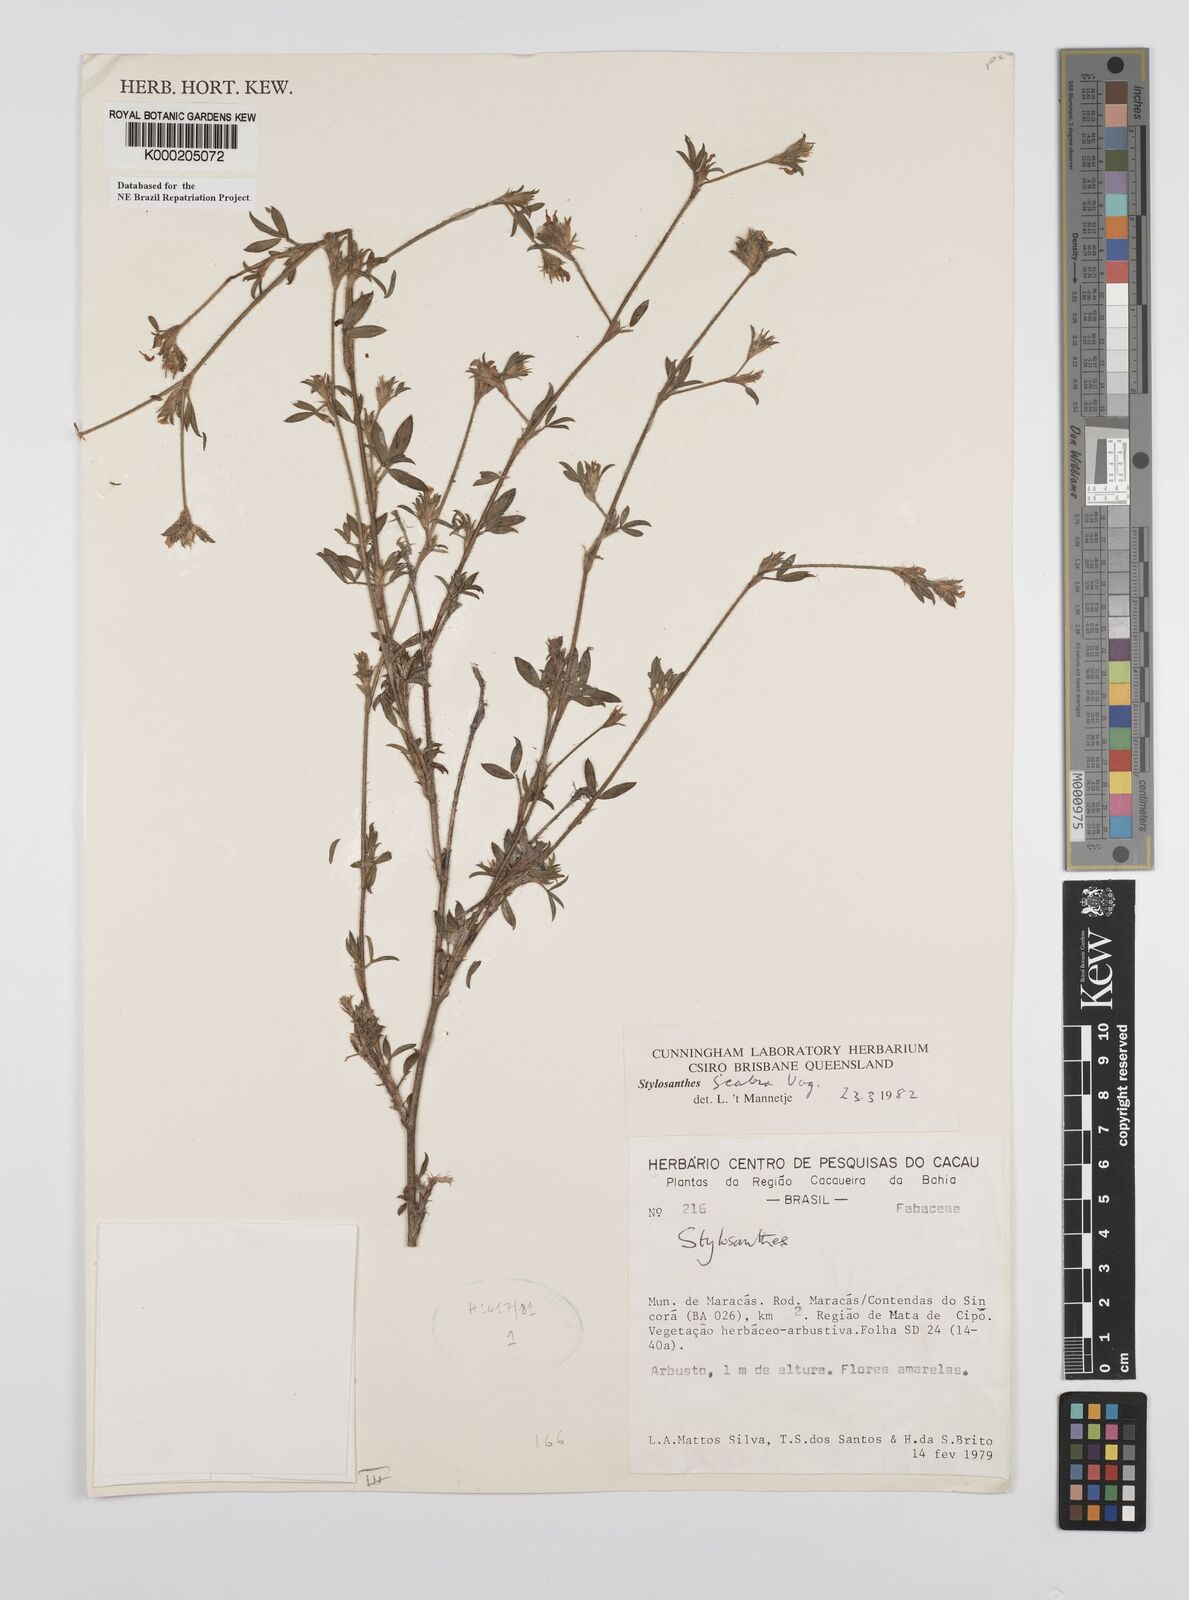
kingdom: Plantae
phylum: Tracheophyta
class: Magnoliopsida
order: Fabales
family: Fabaceae
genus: Stylosanthes
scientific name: Stylosanthes scabra
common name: Pencilflower
